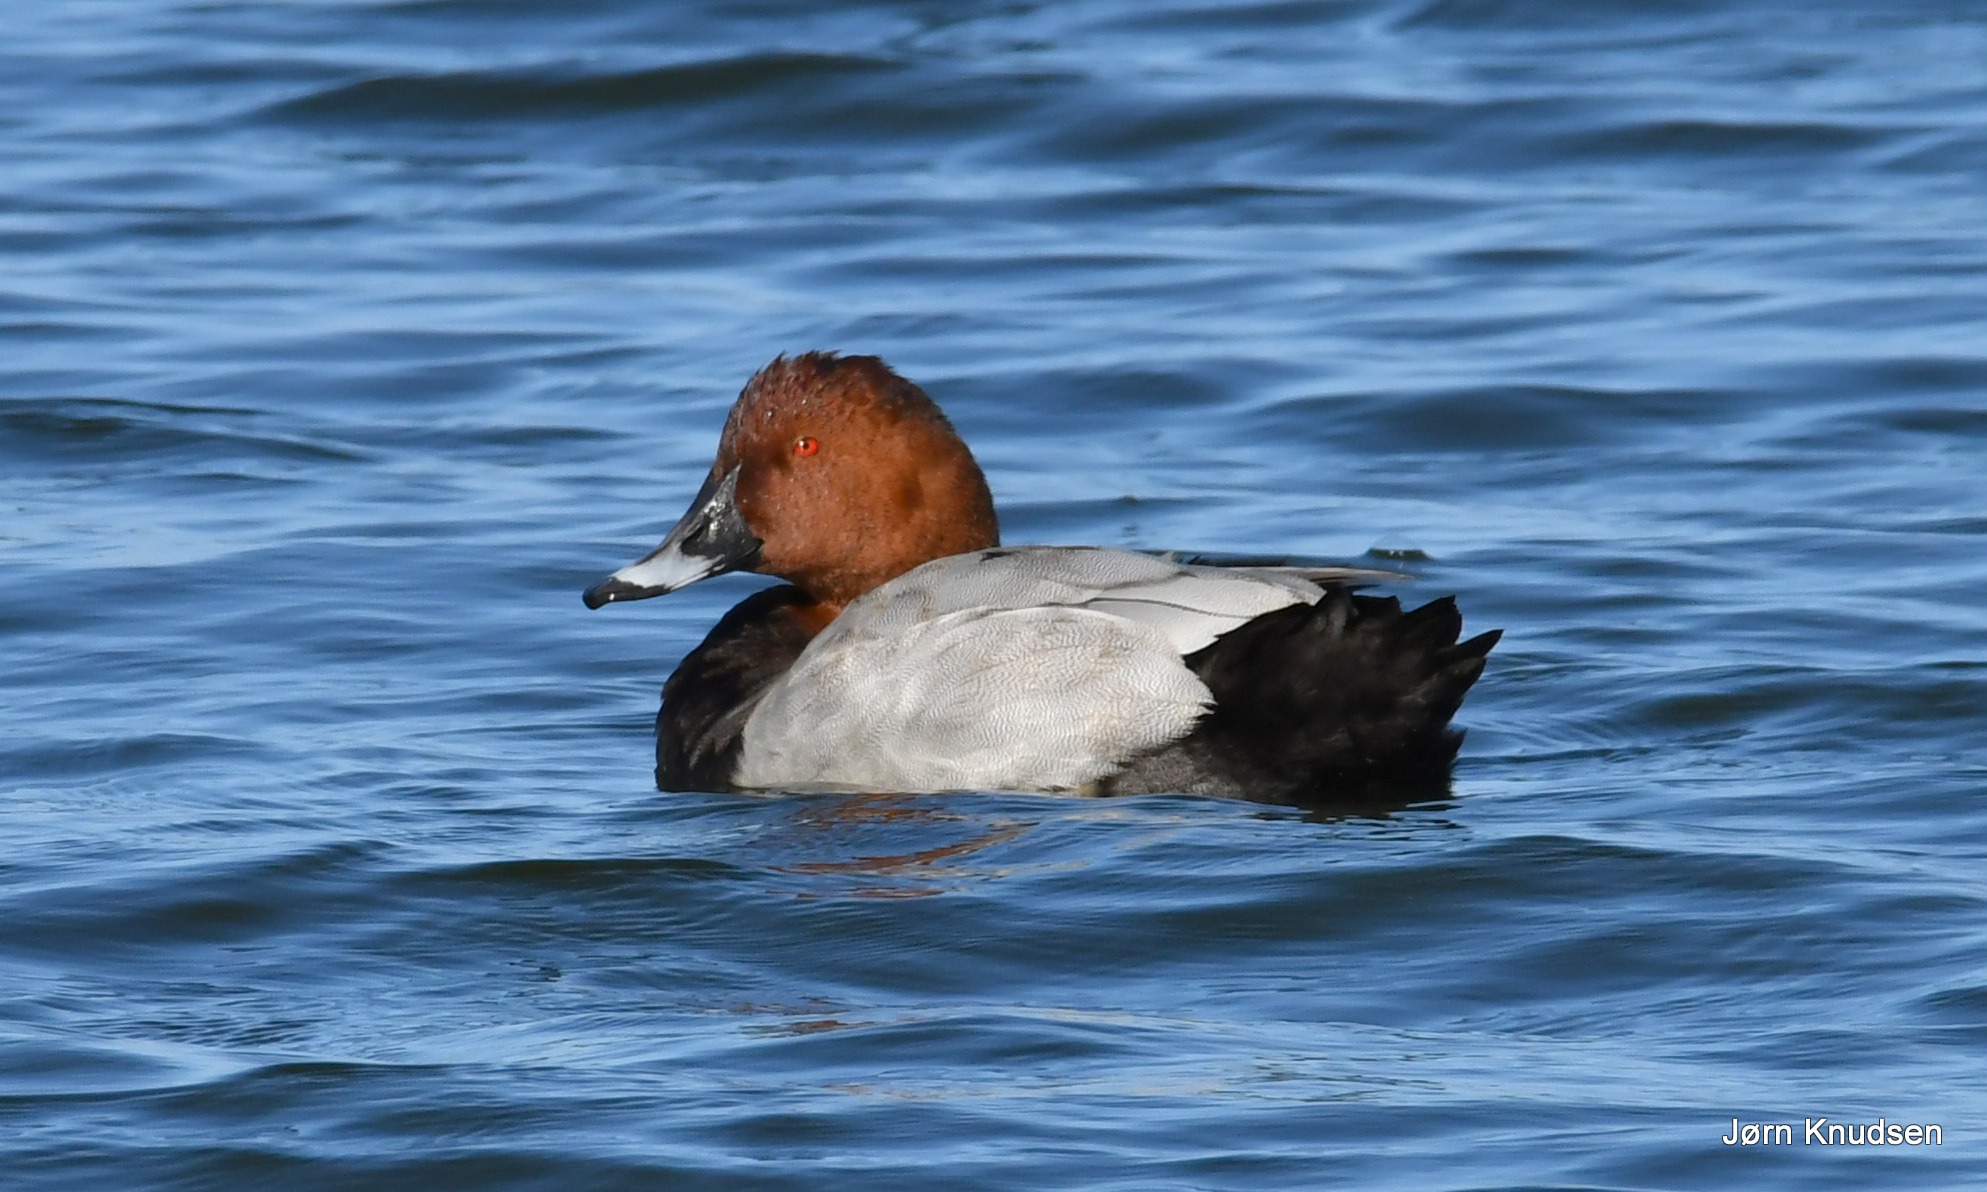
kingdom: Animalia
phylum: Chordata
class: Aves
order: Anseriformes
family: Anatidae
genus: Aythya
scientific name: Aythya ferina
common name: Taffeland
